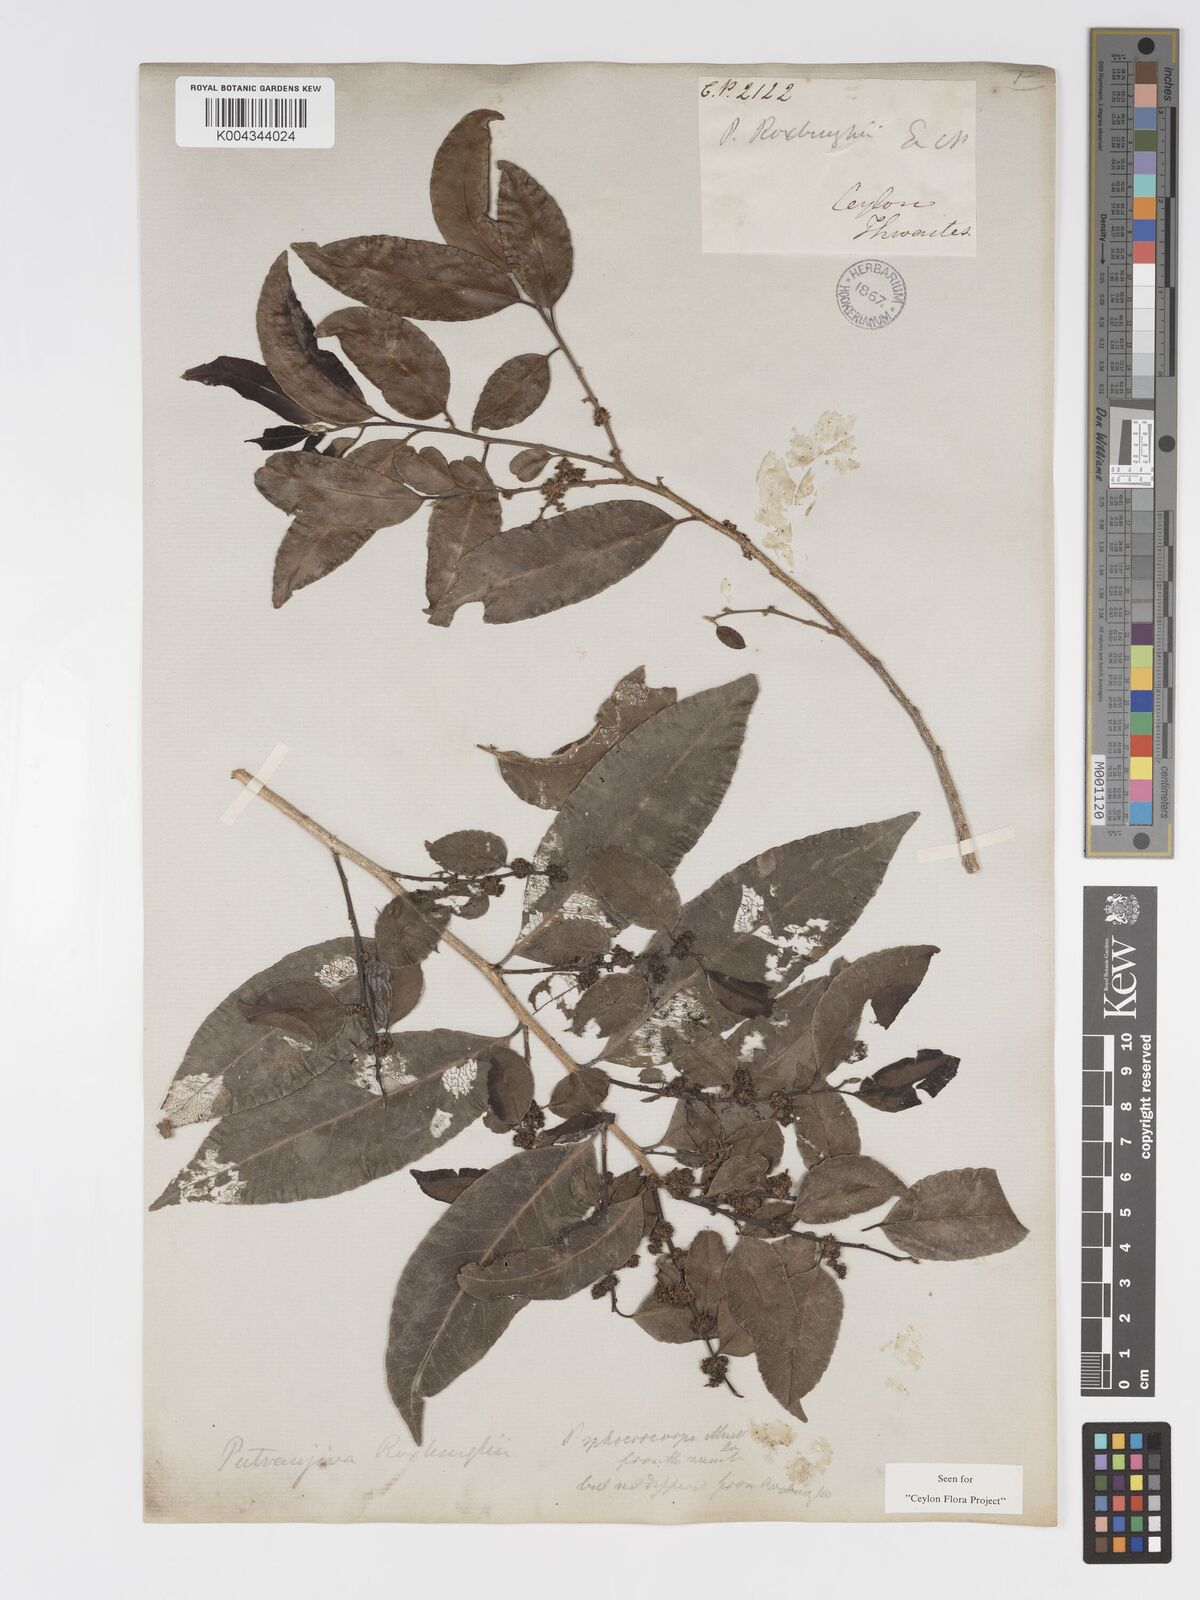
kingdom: Plantae
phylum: Tracheophyta
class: Magnoliopsida
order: Malpighiales
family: Putranjivaceae
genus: Putranjiva
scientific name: Putranjiva roxburghii
